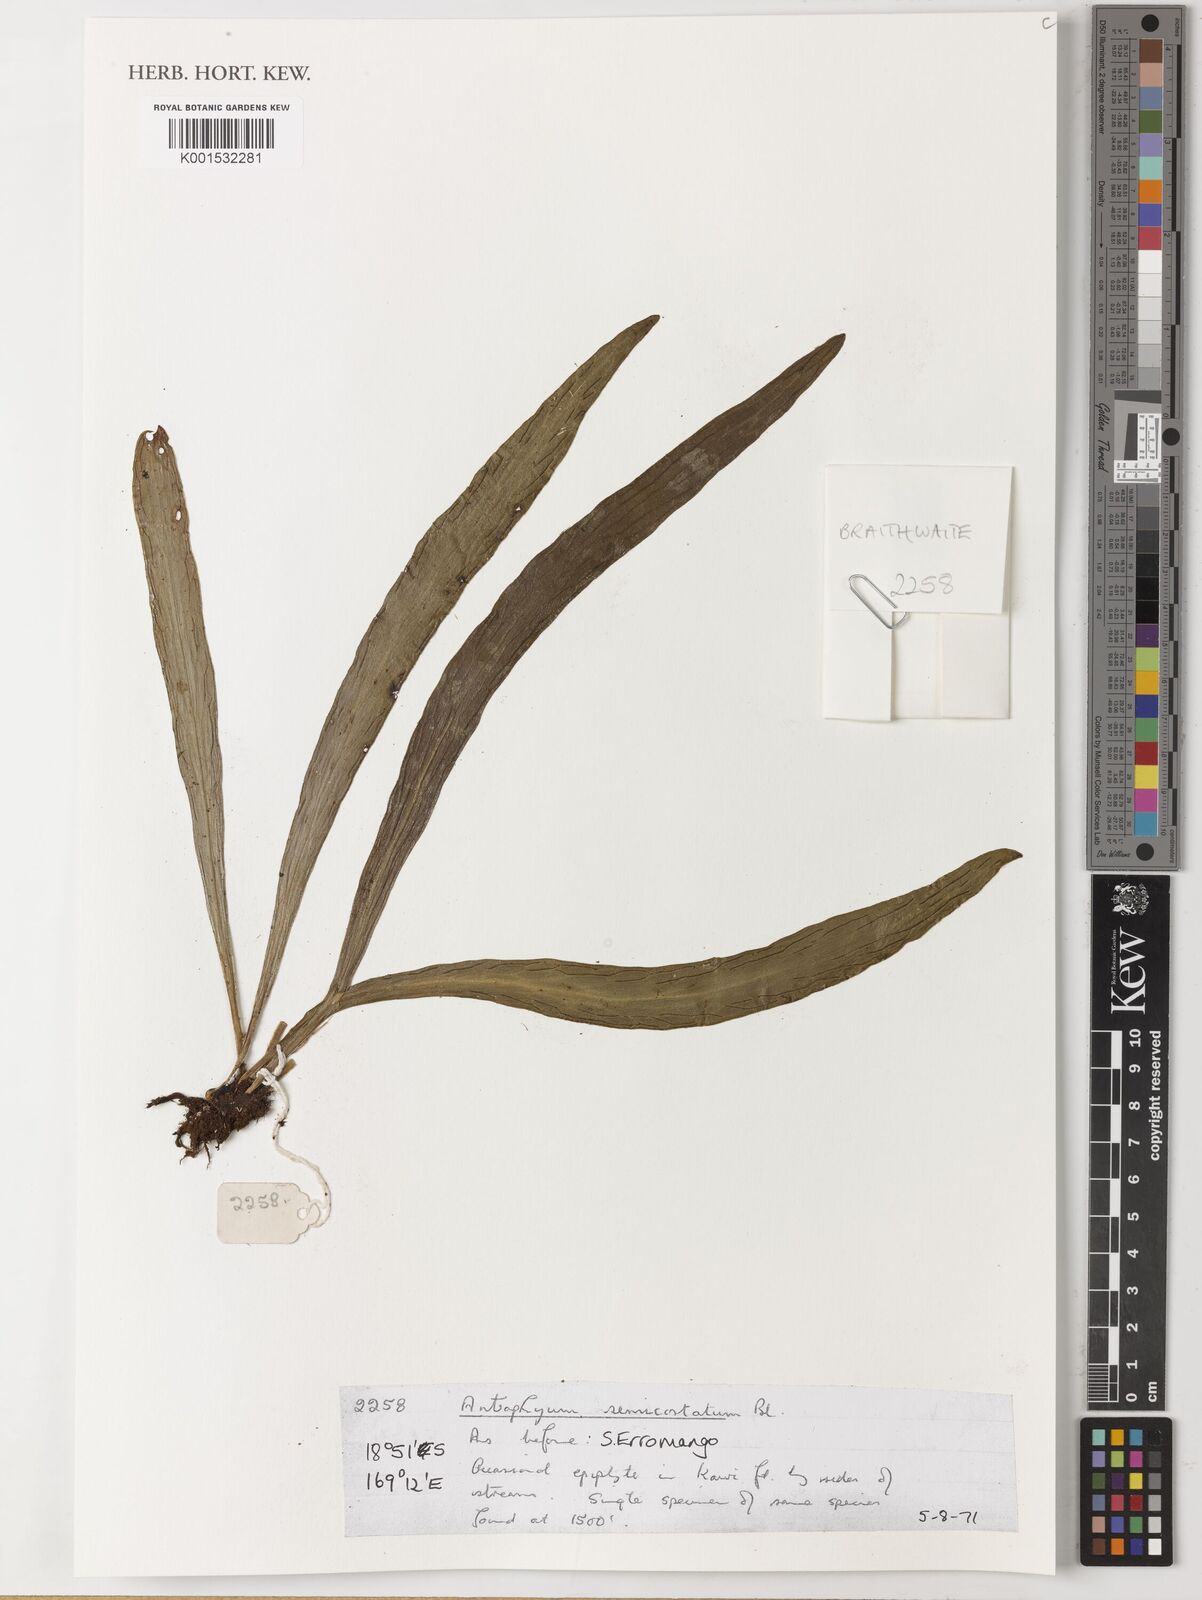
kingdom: Plantae
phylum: Tracheophyta
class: Polypodiopsida
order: Polypodiales
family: Pteridaceae
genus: Antrophyum
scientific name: Antrophyum semicostatum
